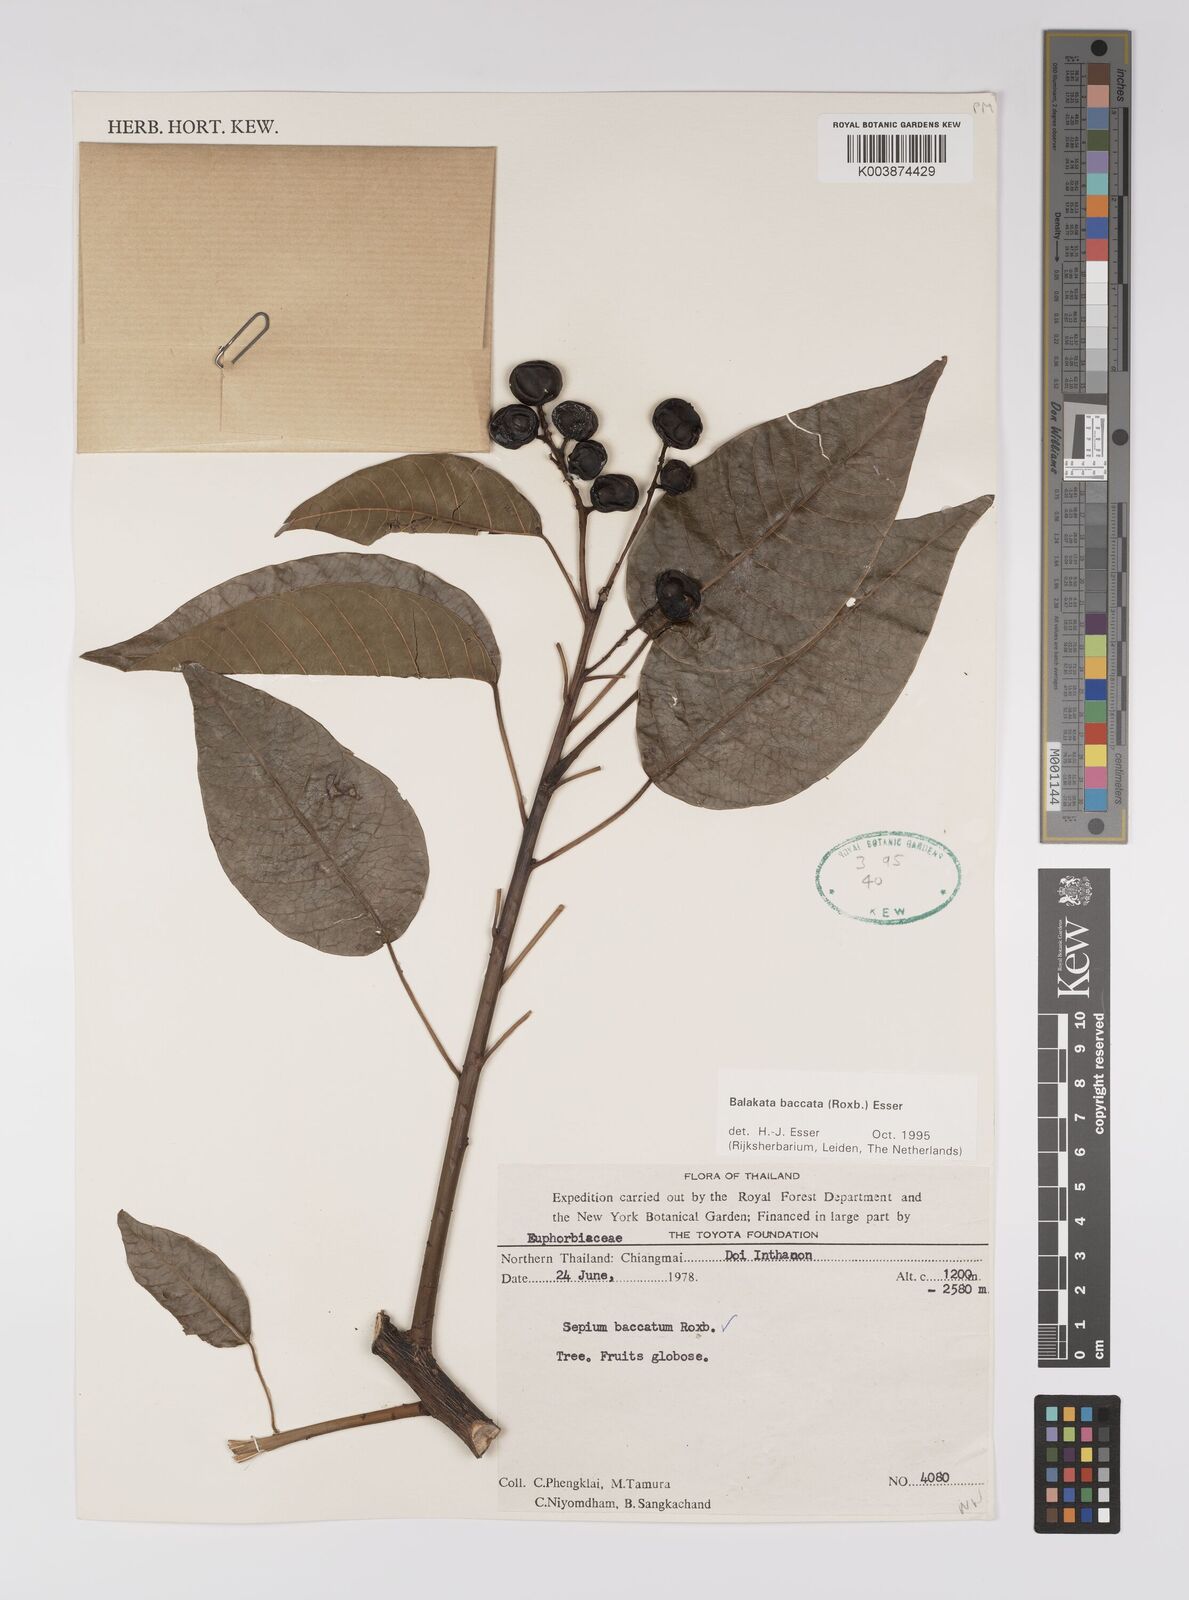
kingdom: Plantae
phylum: Tracheophyta
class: Magnoliopsida
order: Malpighiales
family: Euphorbiaceae
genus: Balakata
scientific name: Balakata baccata
